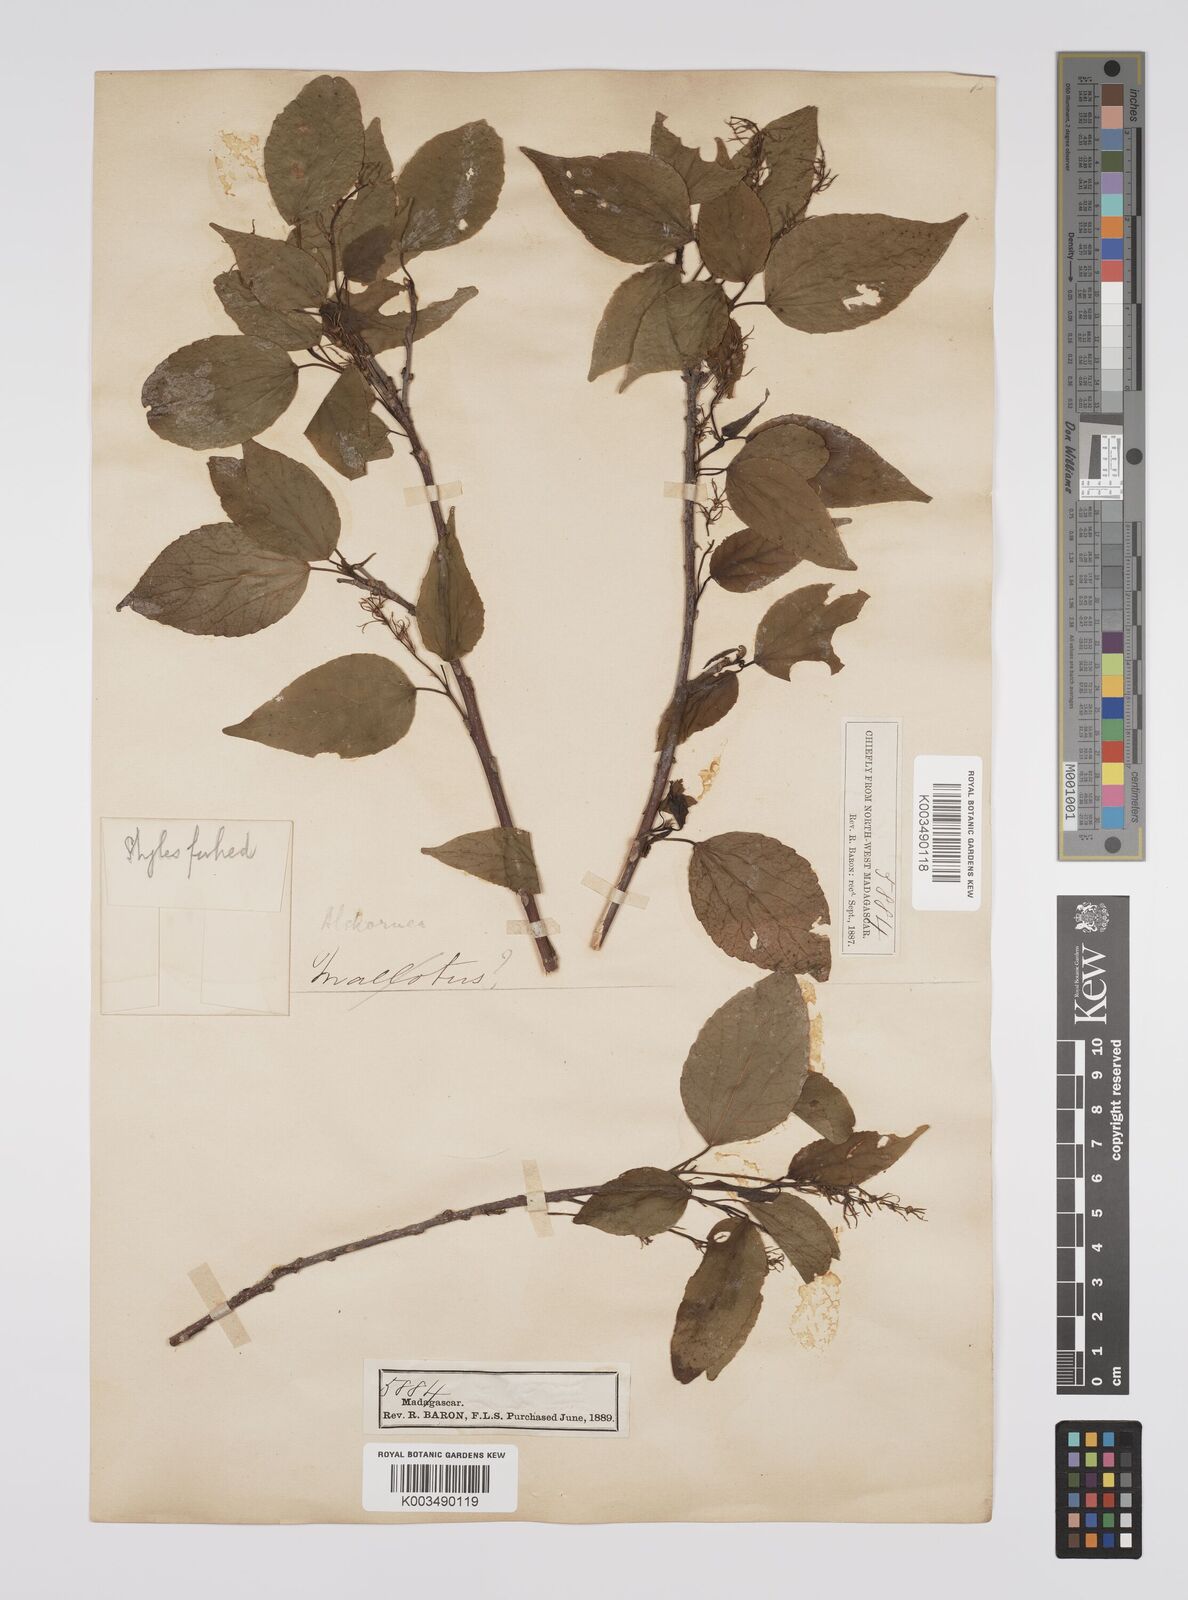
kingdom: Plantae
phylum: Tracheophyta
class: Magnoliopsida
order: Malpighiales
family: Euphorbiaceae
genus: Alchornea
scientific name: Alchornea alnifolia
